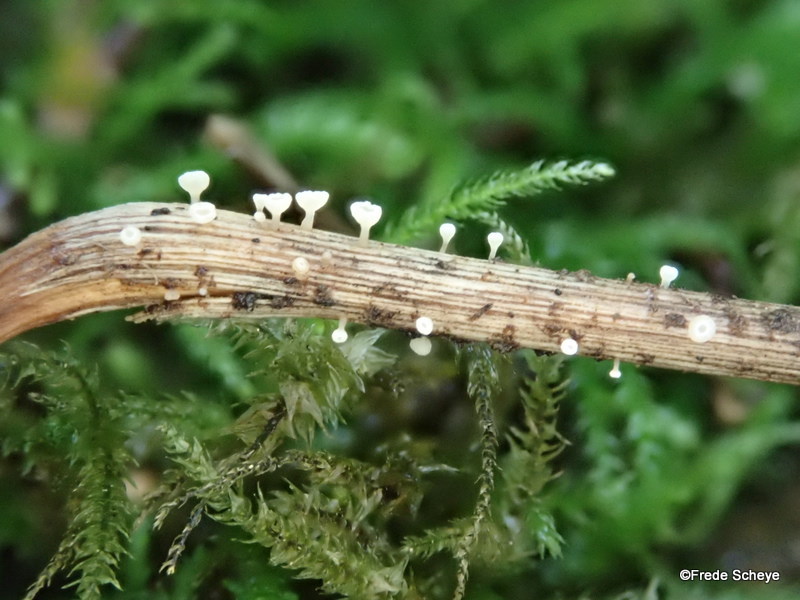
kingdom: Fungi
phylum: Ascomycota
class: Leotiomycetes
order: Helotiales
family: Helotiaceae
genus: Hymenoscyphus
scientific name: Hymenoscyphus fraxineus
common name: asketoptørre-stilkskive
